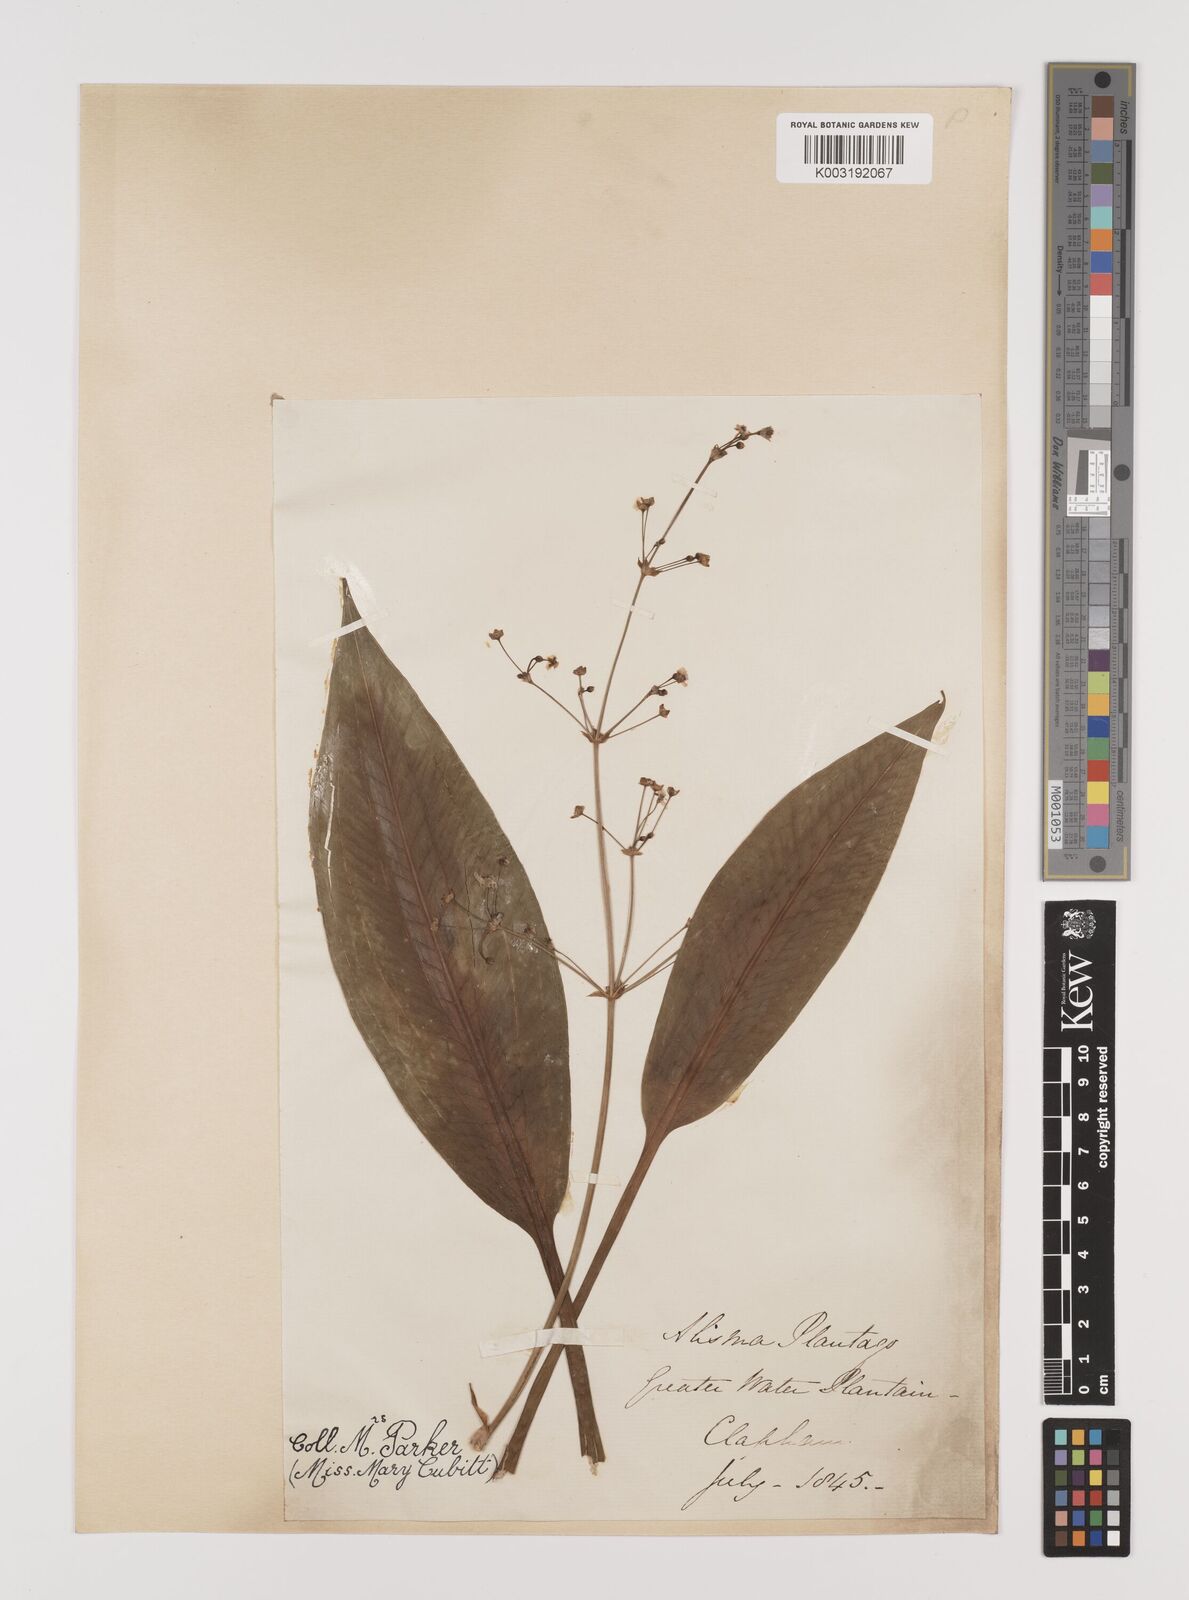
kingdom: Plantae
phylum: Tracheophyta
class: Liliopsida
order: Alismatales
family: Alismataceae
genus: Alisma
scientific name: Alisma plantago-aquatica
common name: Water-plantain
